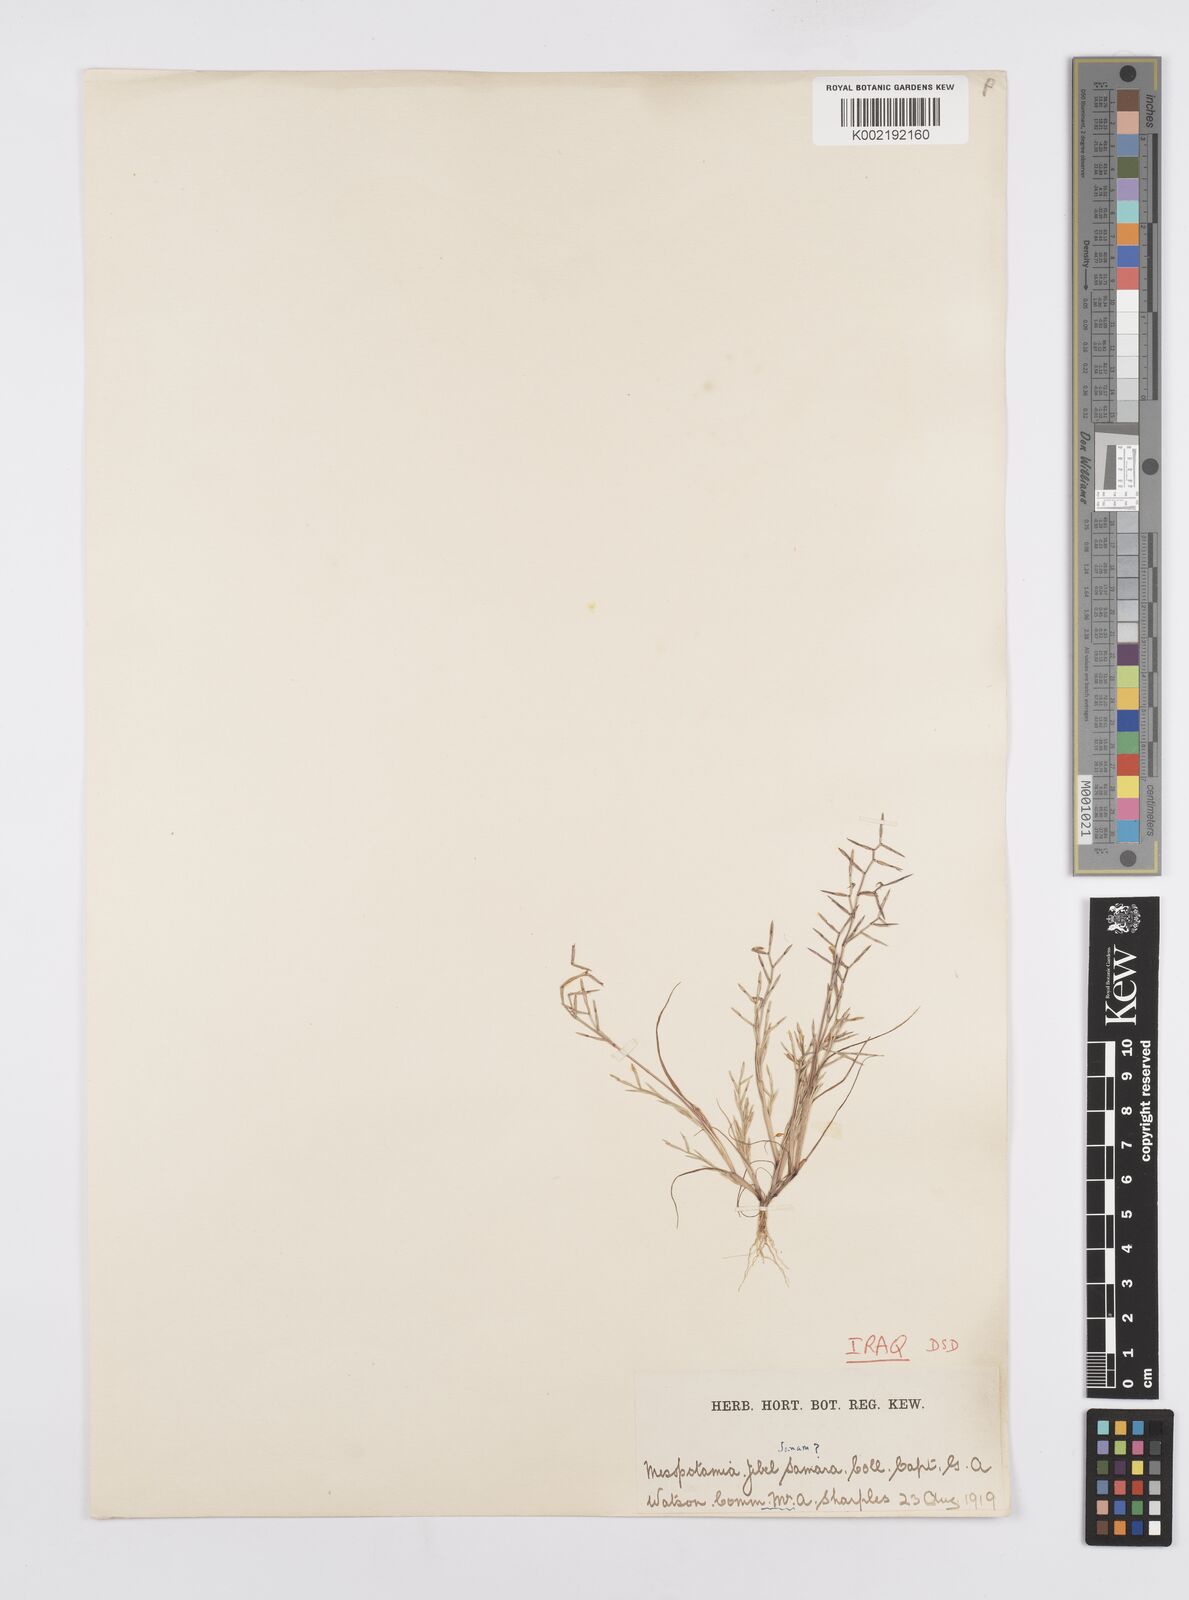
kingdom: Plantae
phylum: Tracheophyta
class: Liliopsida
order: Poales
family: Poaceae
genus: Cutandia
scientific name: Cutandia dichotoma
